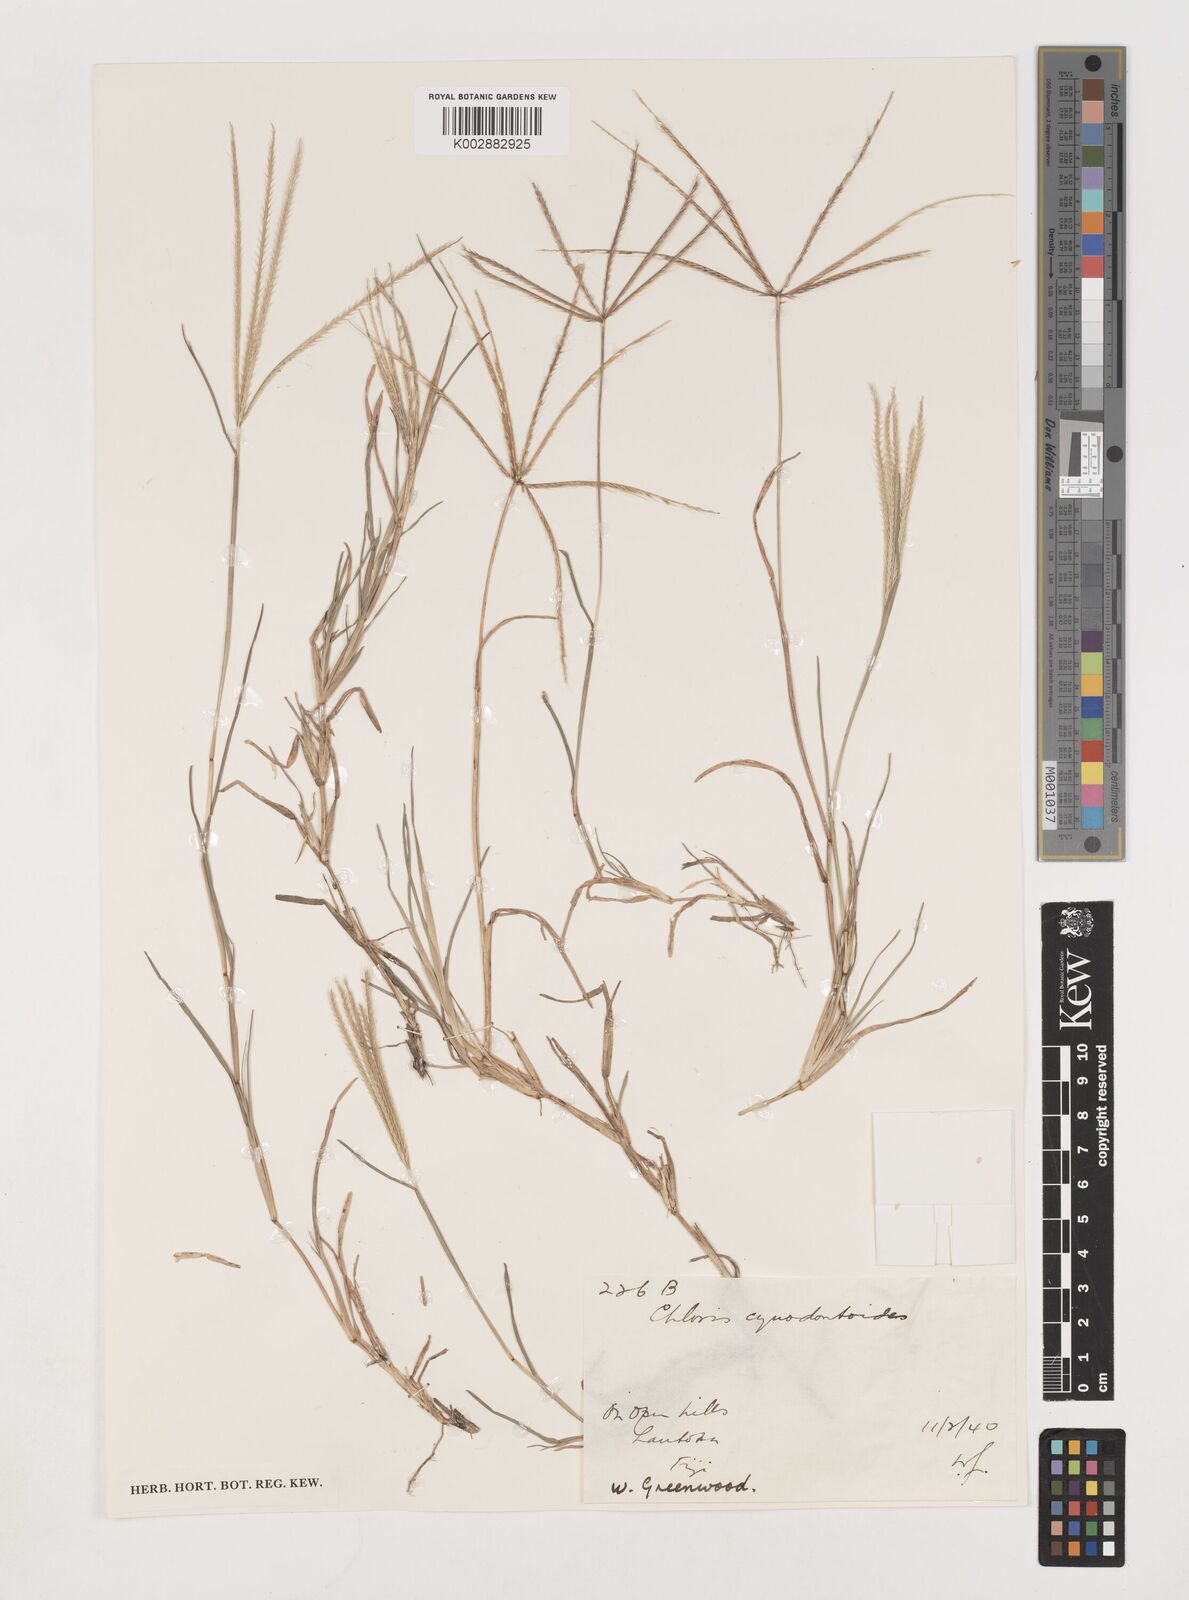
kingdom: Plantae
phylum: Tracheophyta
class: Liliopsida
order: Poales
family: Poaceae
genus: Chloris
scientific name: Chloris divaricata
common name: Spreading windmill grass
